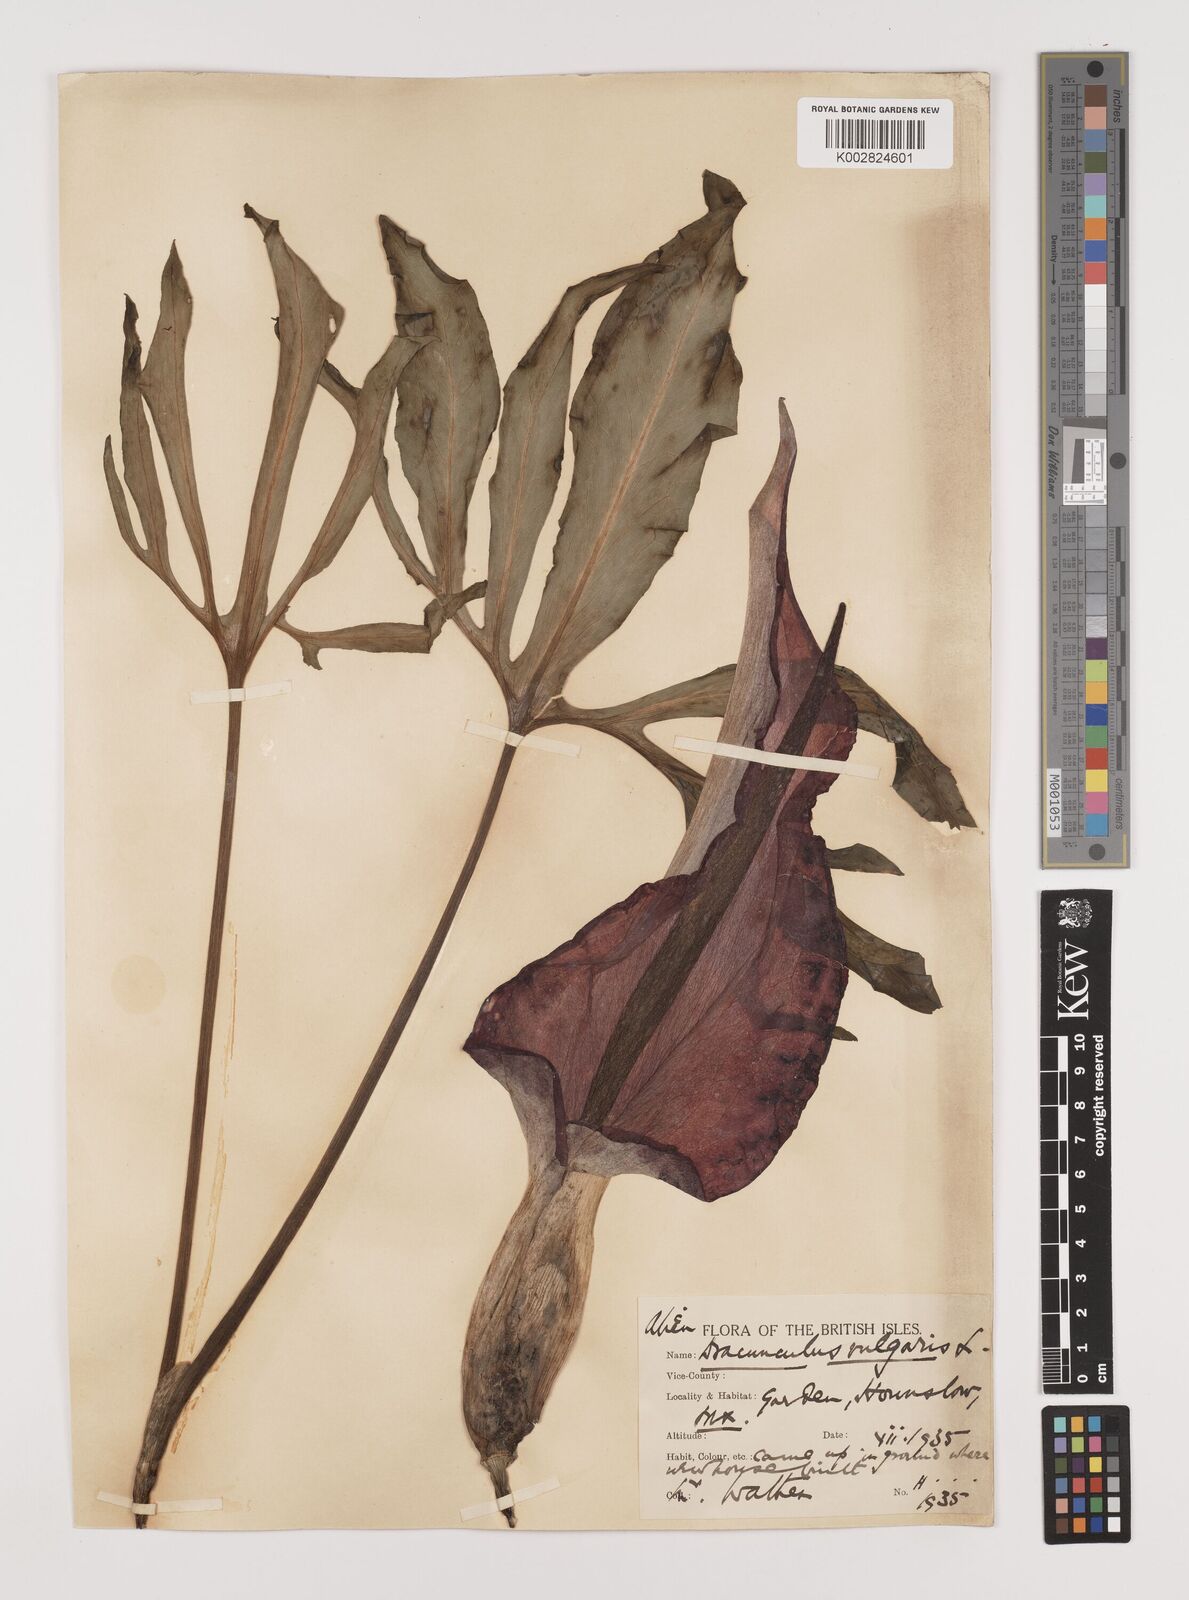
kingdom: Plantae
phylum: Tracheophyta
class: Liliopsida
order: Alismatales
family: Araceae
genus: Dracunculus
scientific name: Dracunculus vulgaris
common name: Dragon arum
